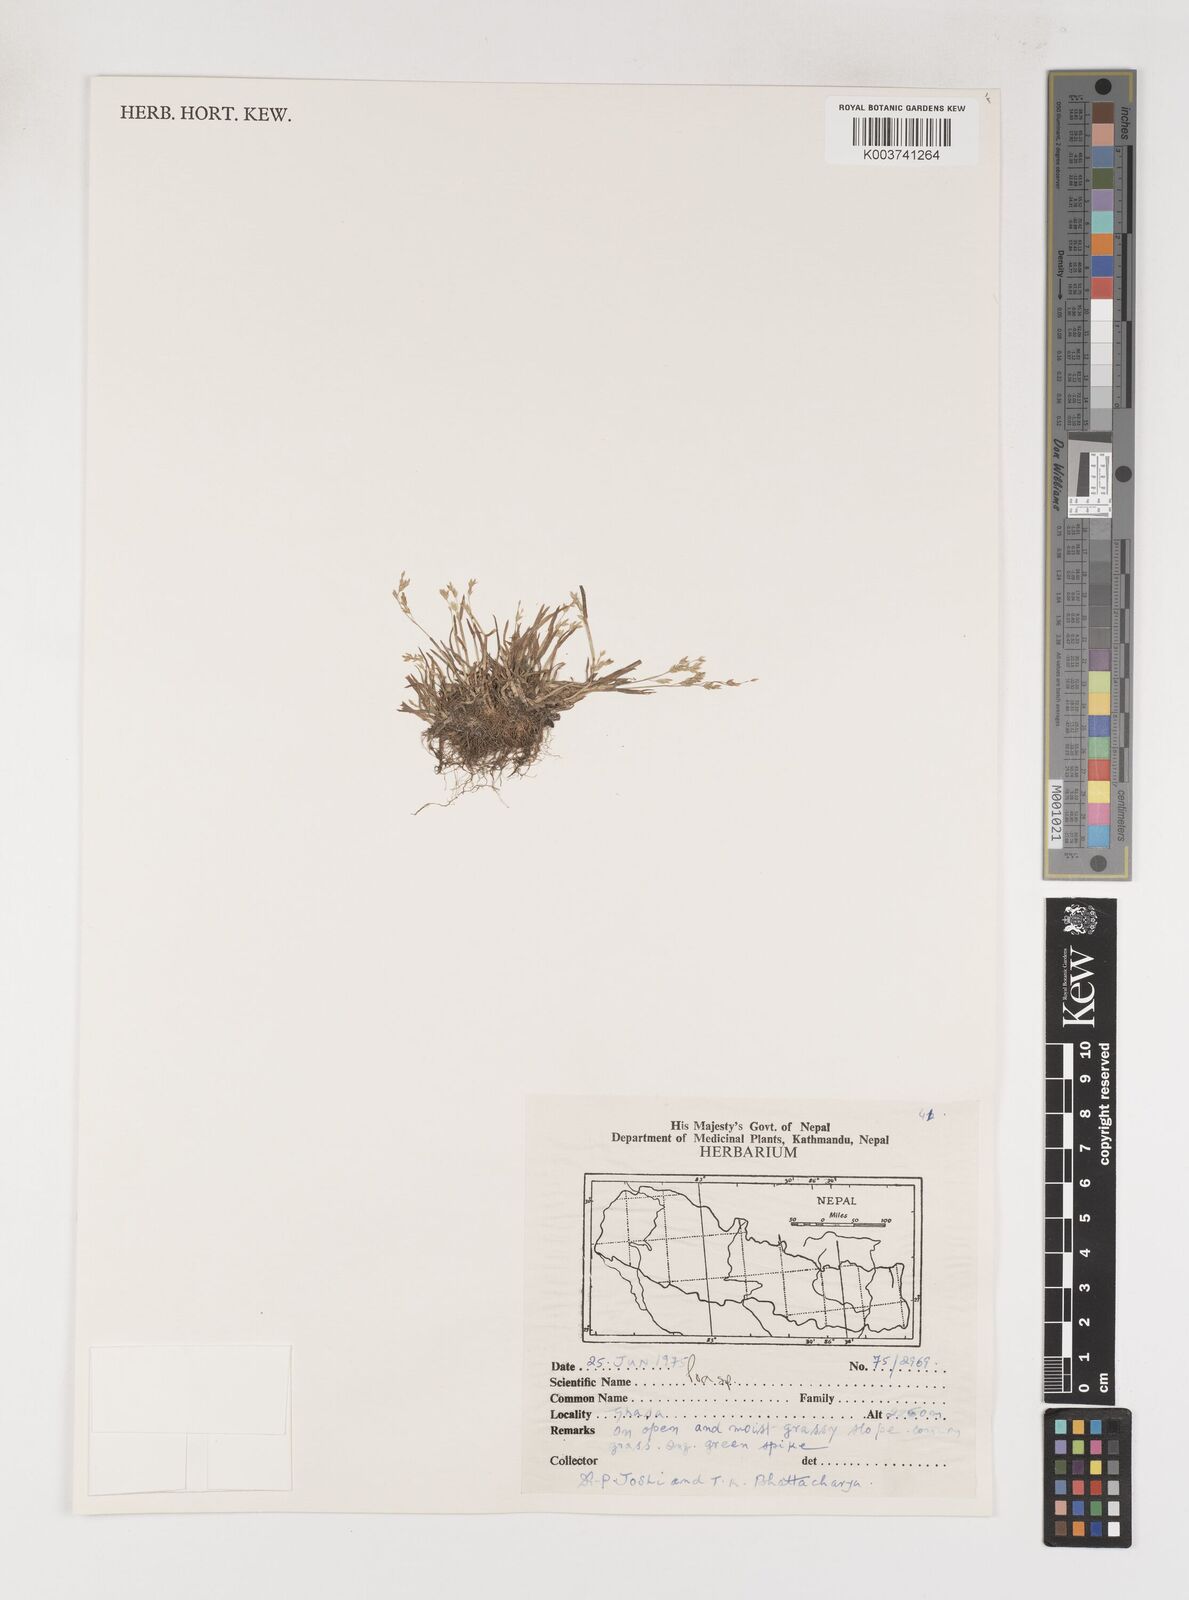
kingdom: Plantae
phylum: Tracheophyta
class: Liliopsida
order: Poales
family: Poaceae
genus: Poa
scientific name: Poa
